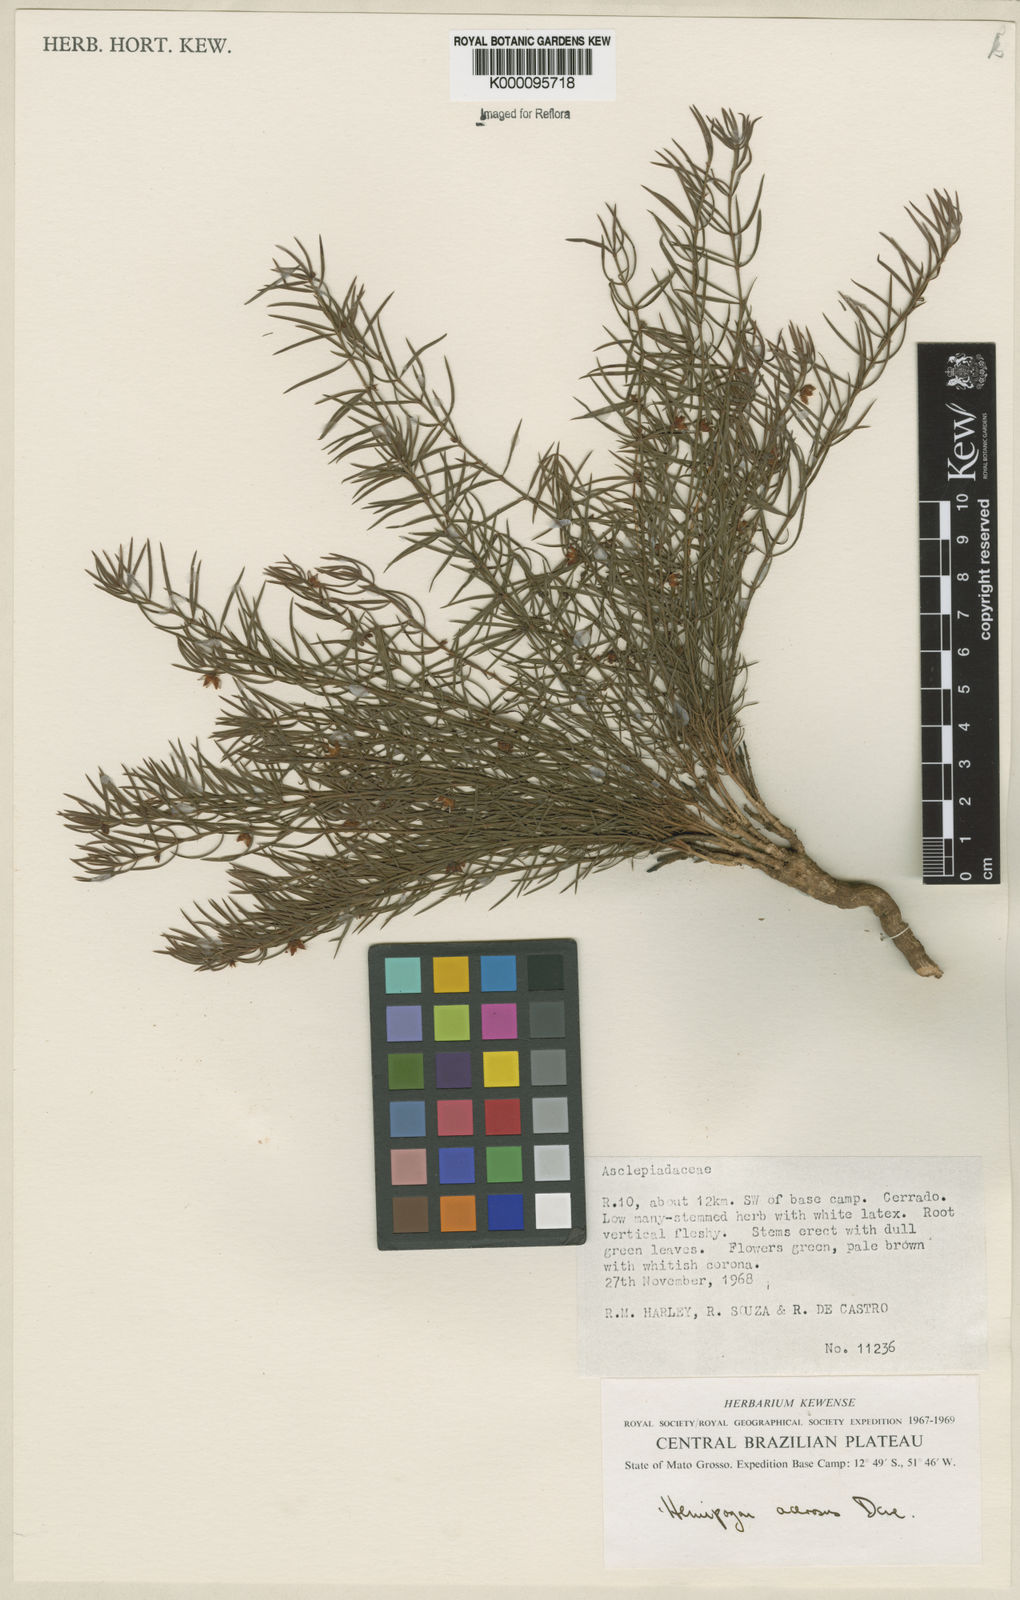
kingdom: Plantae
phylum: Tracheophyta
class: Magnoliopsida
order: Gentianales
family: Apocynaceae
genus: Hemipogon
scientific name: Hemipogon acerosus
